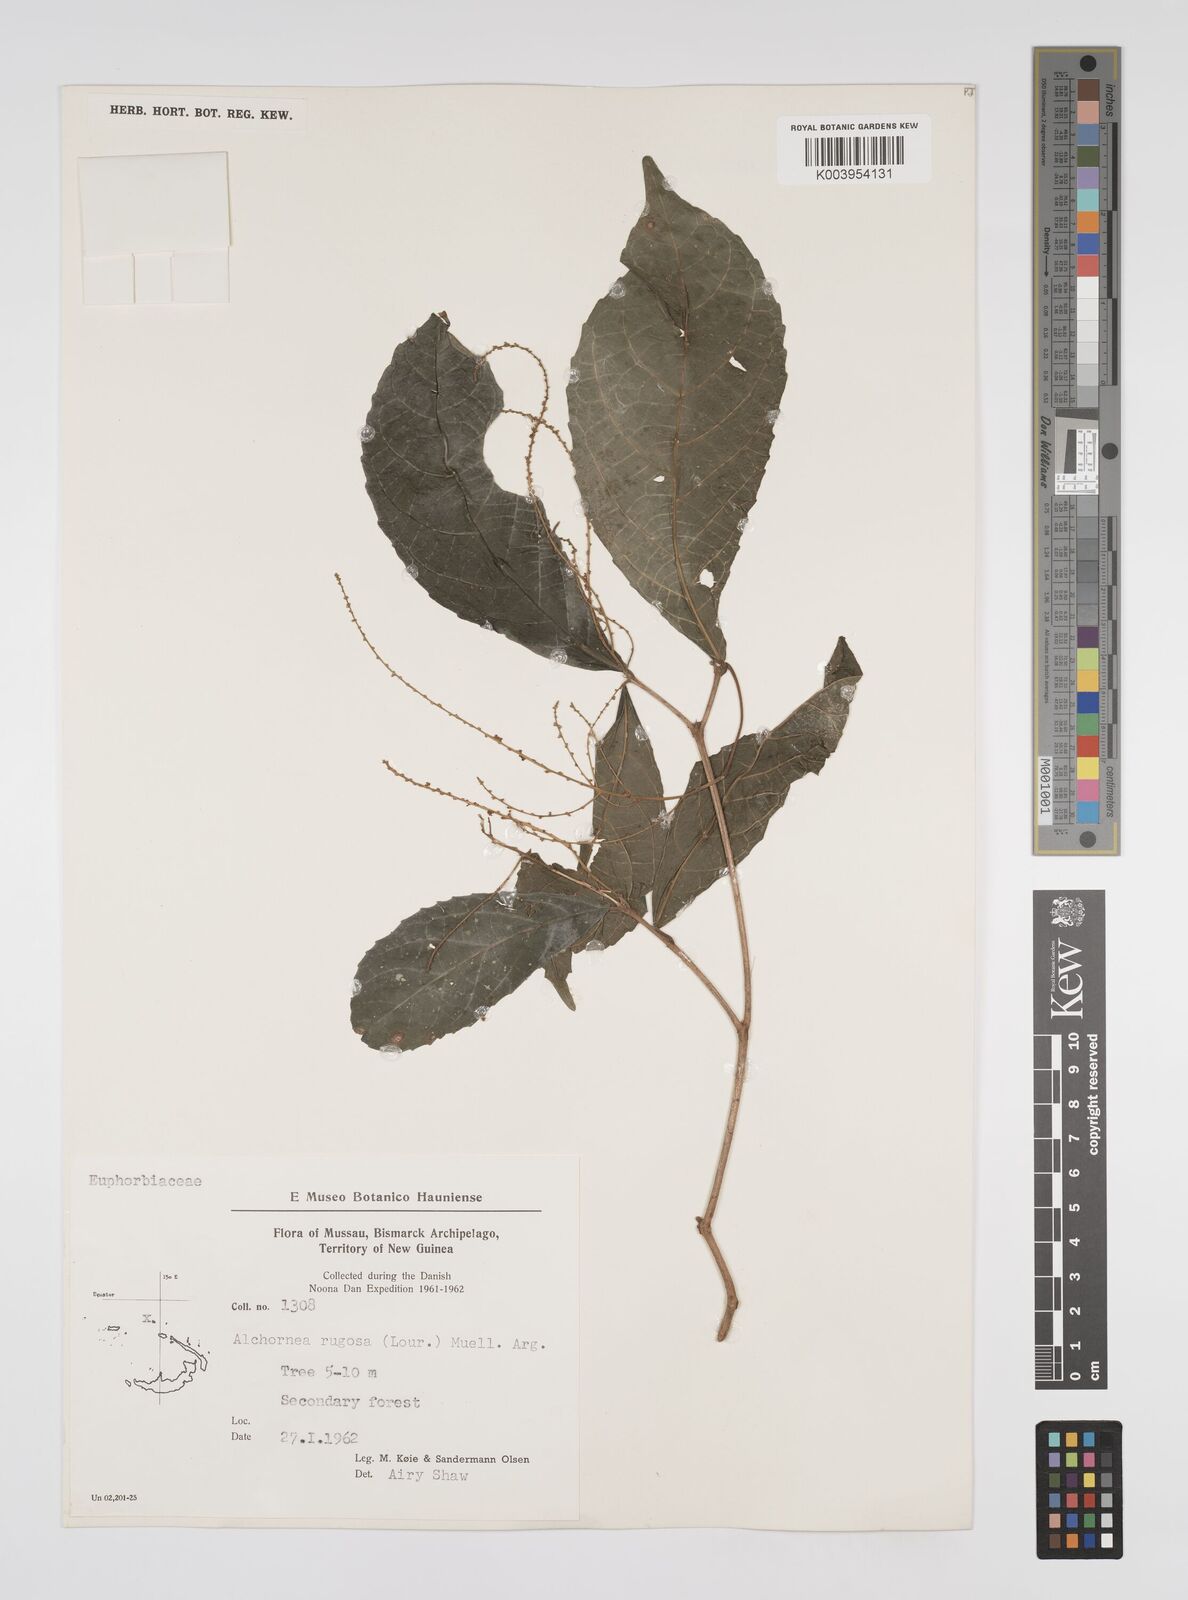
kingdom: Plantae
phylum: Tracheophyta
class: Magnoliopsida
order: Malpighiales
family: Euphorbiaceae
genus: Alchornea
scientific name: Alchornea rugosa
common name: Alchorntree
